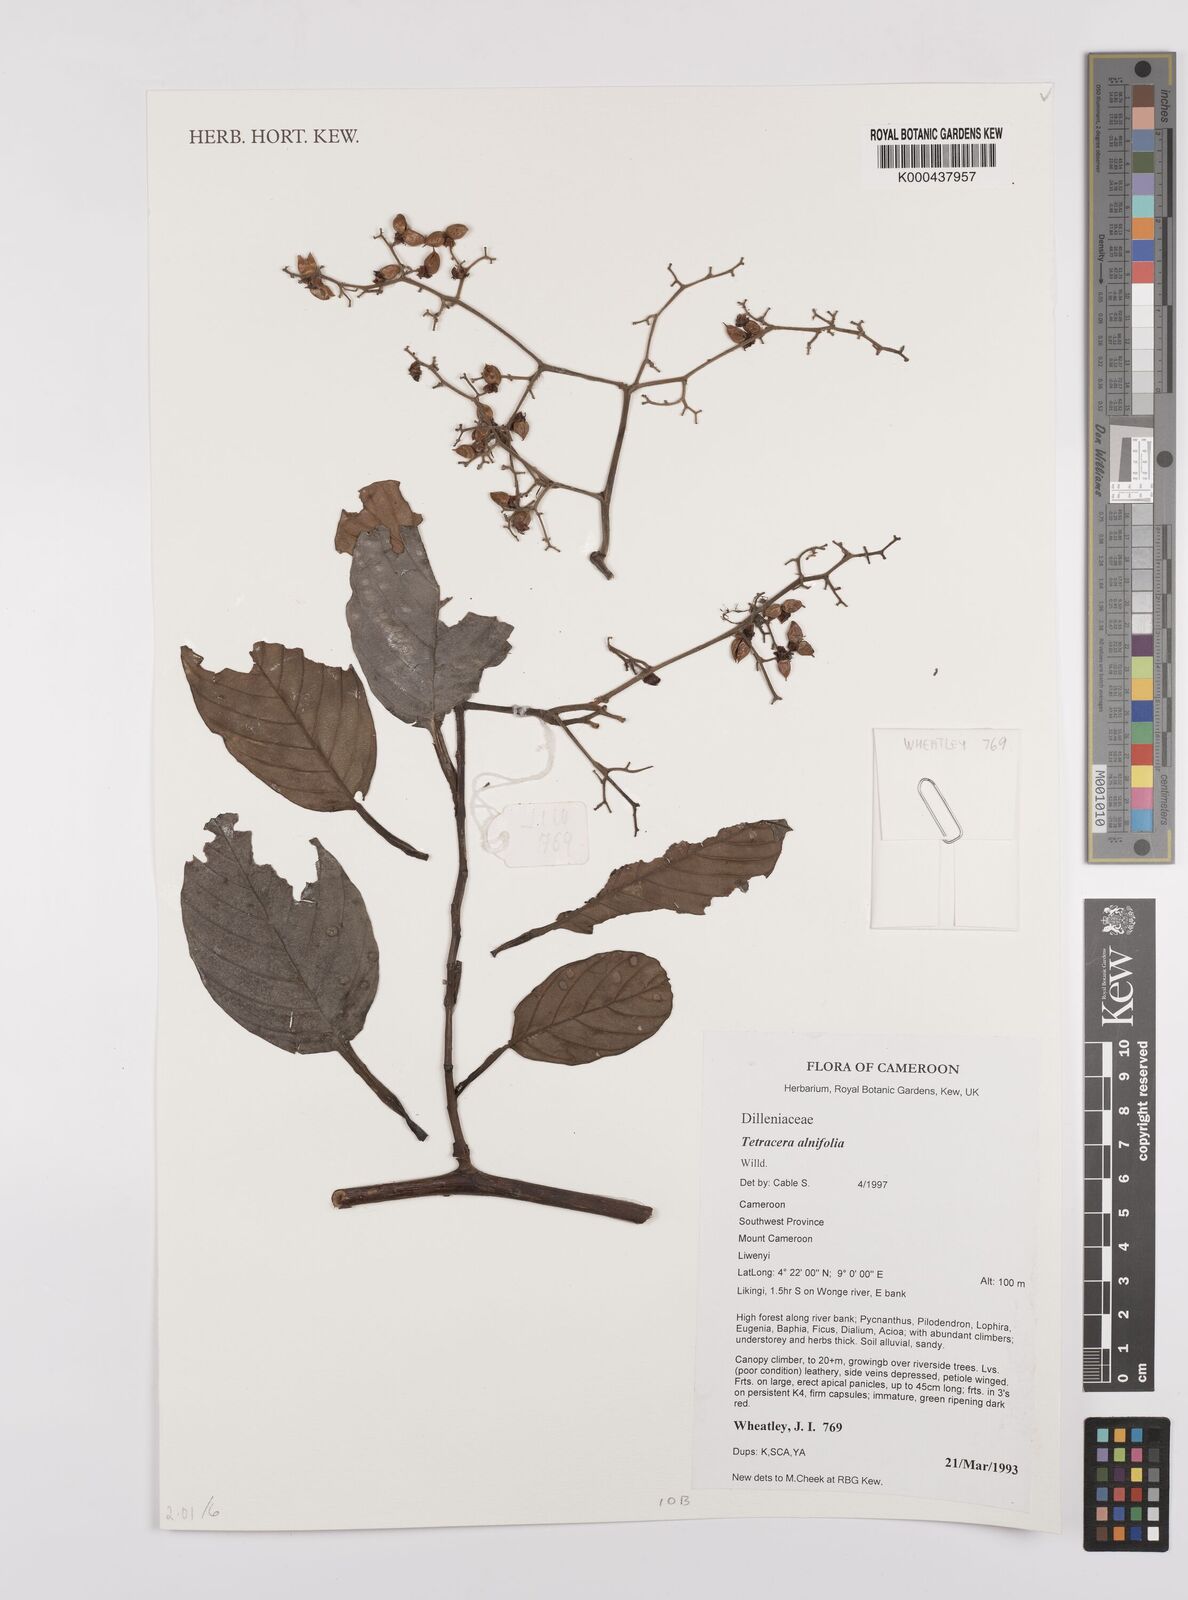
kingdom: Plantae
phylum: Tracheophyta
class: Magnoliopsida
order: Dilleniales
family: Dilleniaceae
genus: Tetracera
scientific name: Tetracera alnifolia
